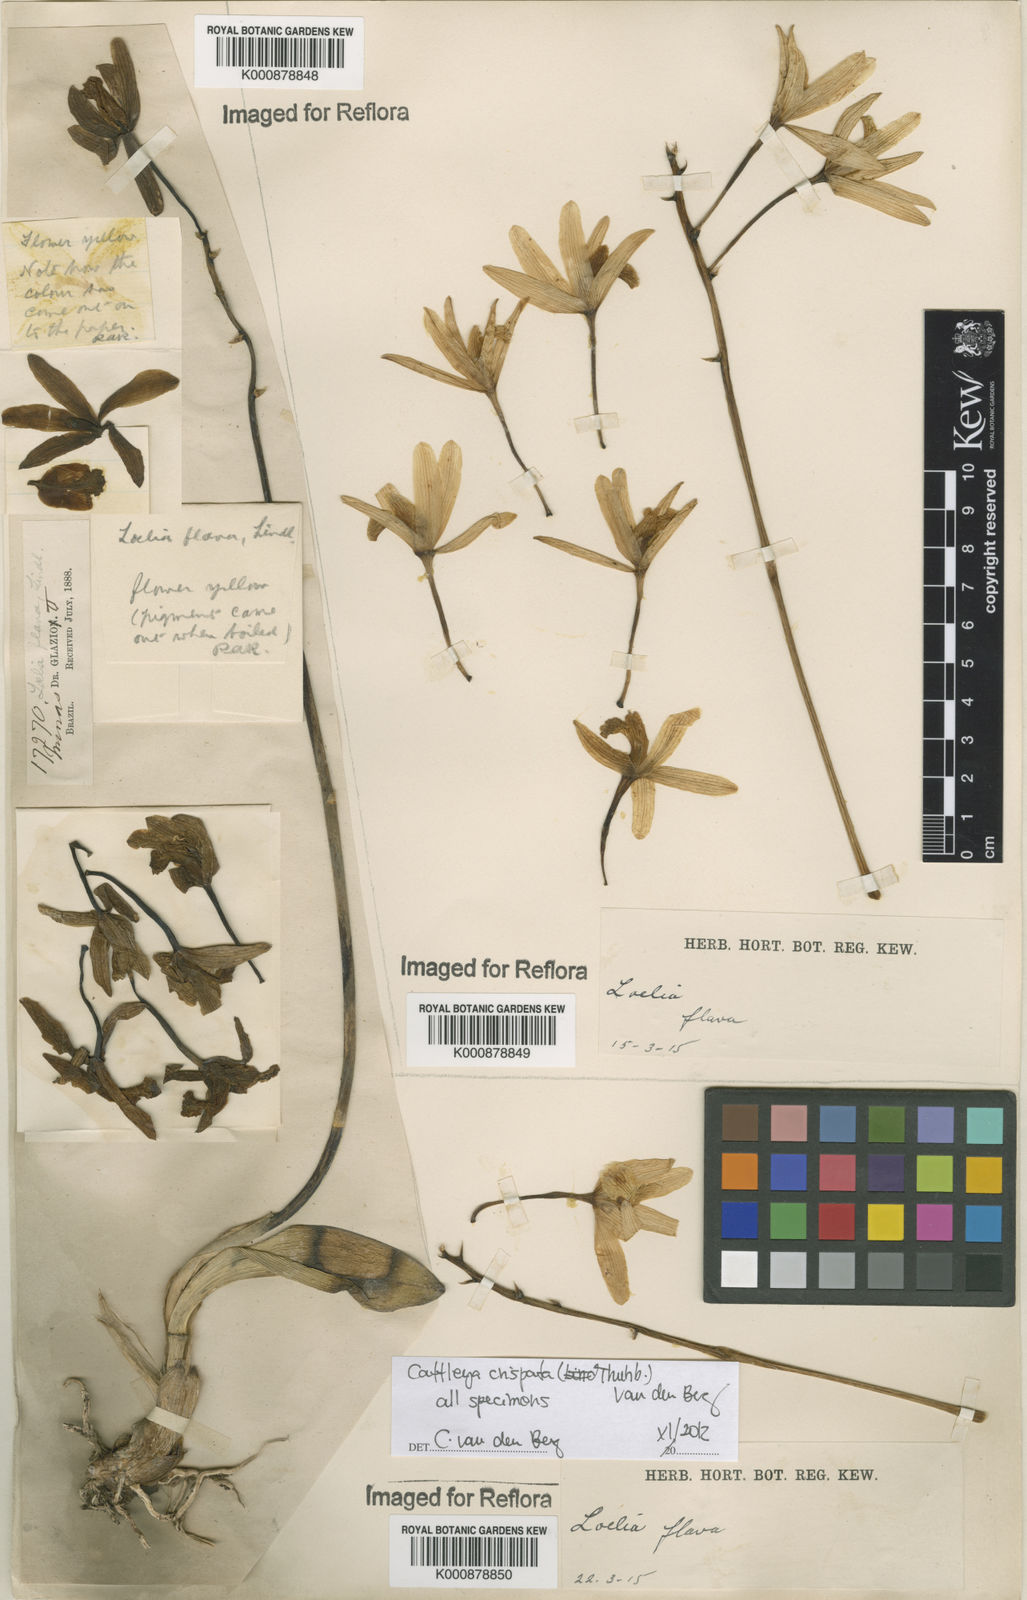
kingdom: Plantae
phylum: Tracheophyta
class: Liliopsida
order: Asparagales
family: Orchidaceae
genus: Cattleya
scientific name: Cattleya crispata
